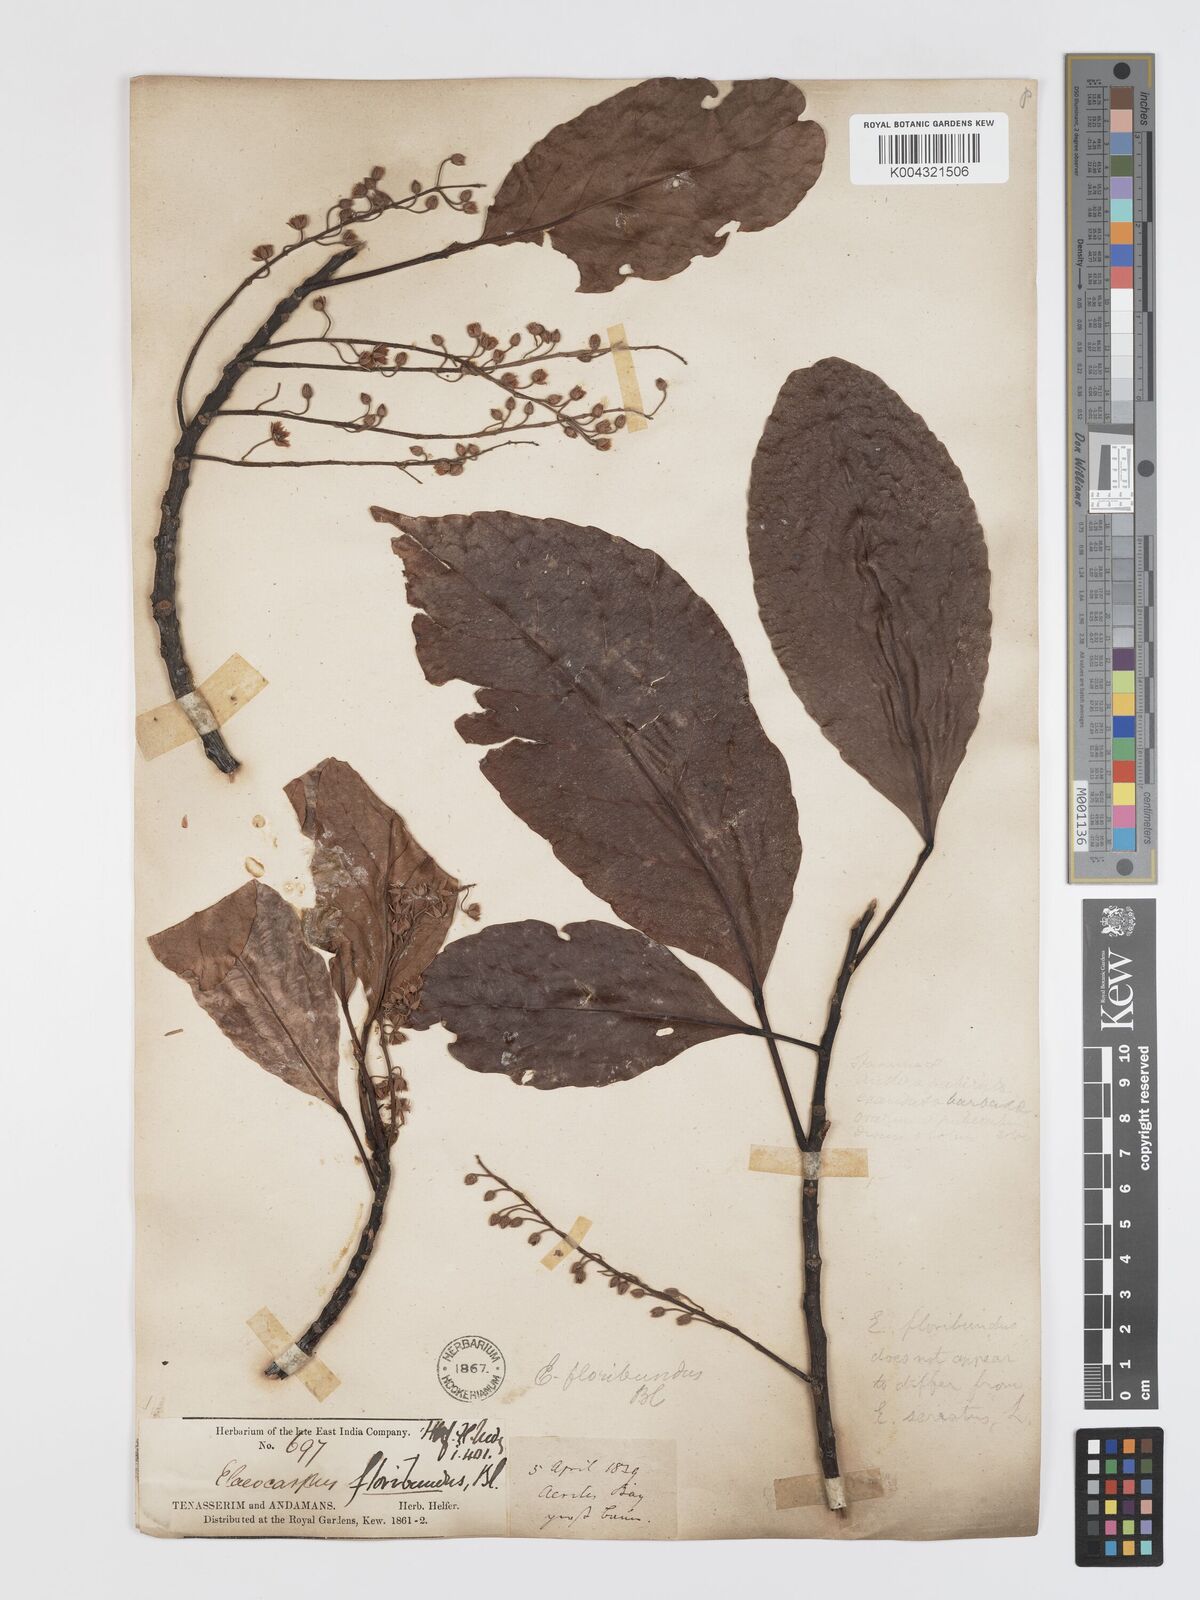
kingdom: Plantae
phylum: Tracheophyta
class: Magnoliopsida
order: Oxalidales
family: Elaeocarpaceae
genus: Elaeocarpus
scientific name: Elaeocarpus floribundus
